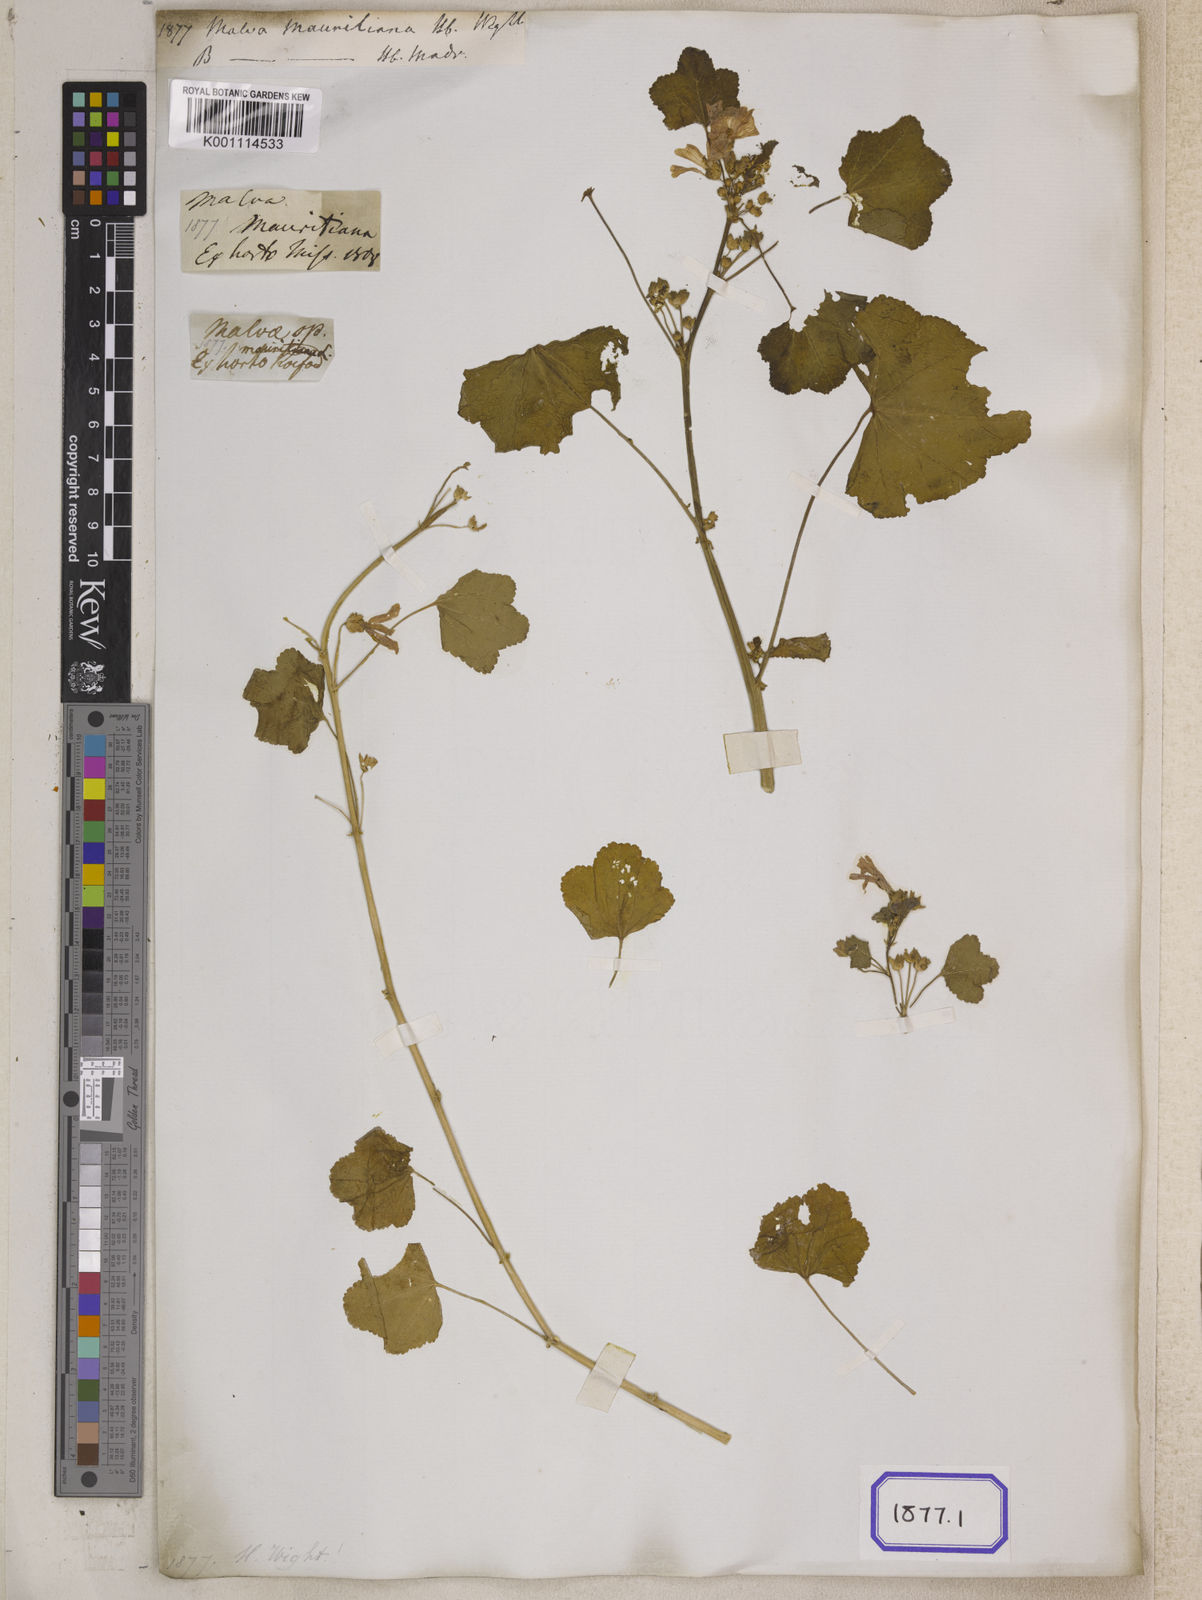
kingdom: Plantae
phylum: Tracheophyta
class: Magnoliopsida
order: Malvales
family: Malvaceae
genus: Malva
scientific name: Malva sylvestris
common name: Common mallow
